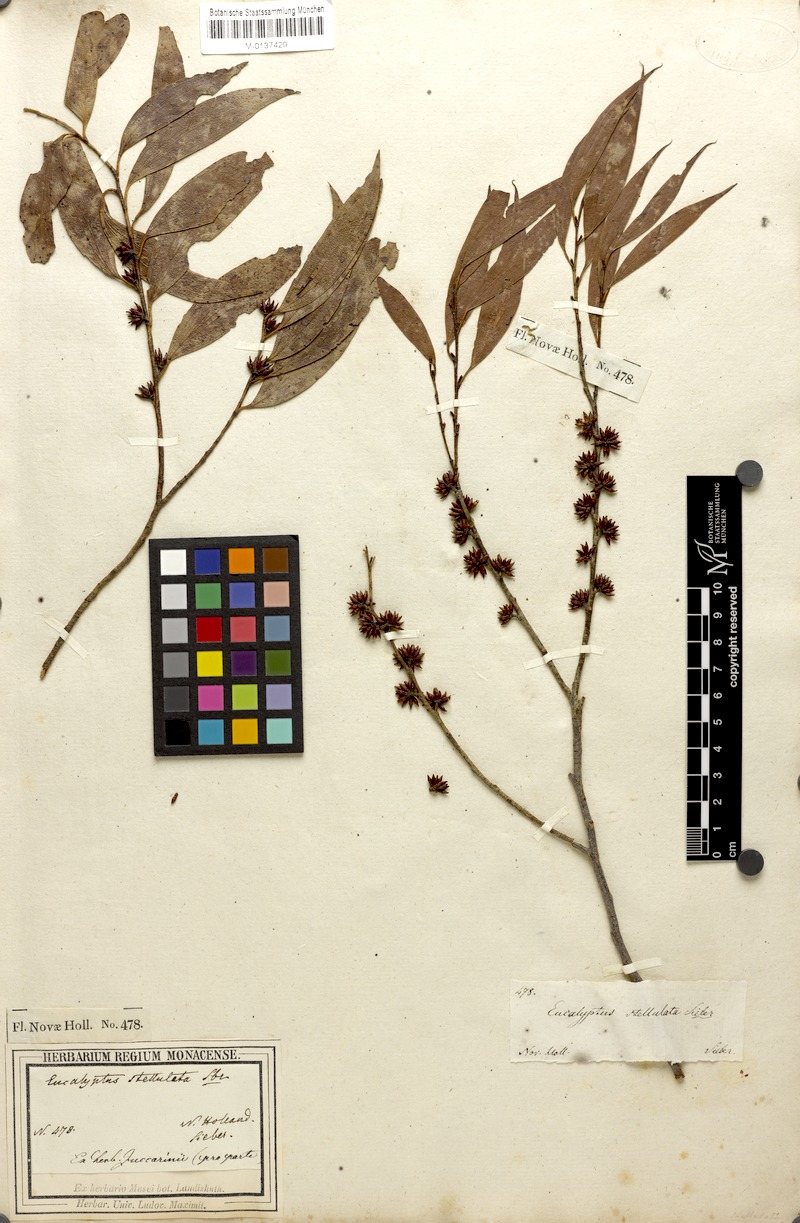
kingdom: Plantae
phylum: Tracheophyta
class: Magnoliopsida
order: Myrtales
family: Myrtaceae
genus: Eucalyptus
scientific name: Eucalyptus stellulata
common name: Black sallee
